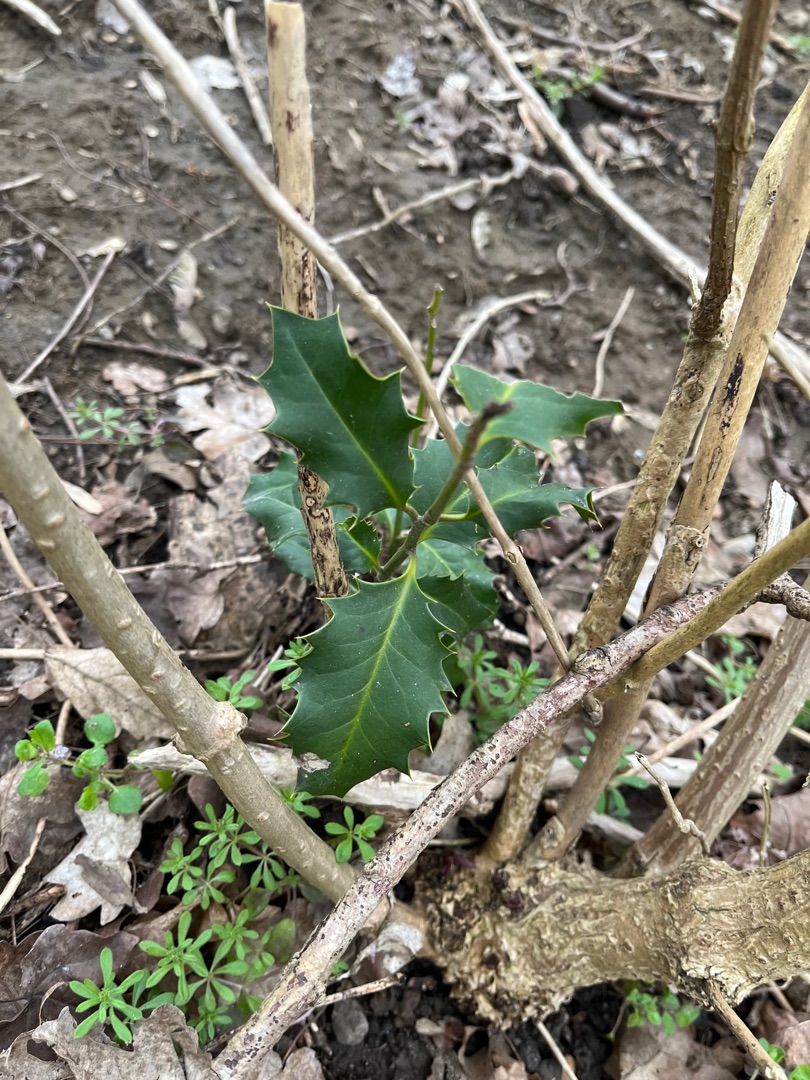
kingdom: Plantae
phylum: Tracheophyta
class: Magnoliopsida
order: Aquifoliales
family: Aquifoliaceae
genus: Ilex
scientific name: Ilex aquifolium
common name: Kristtorn
